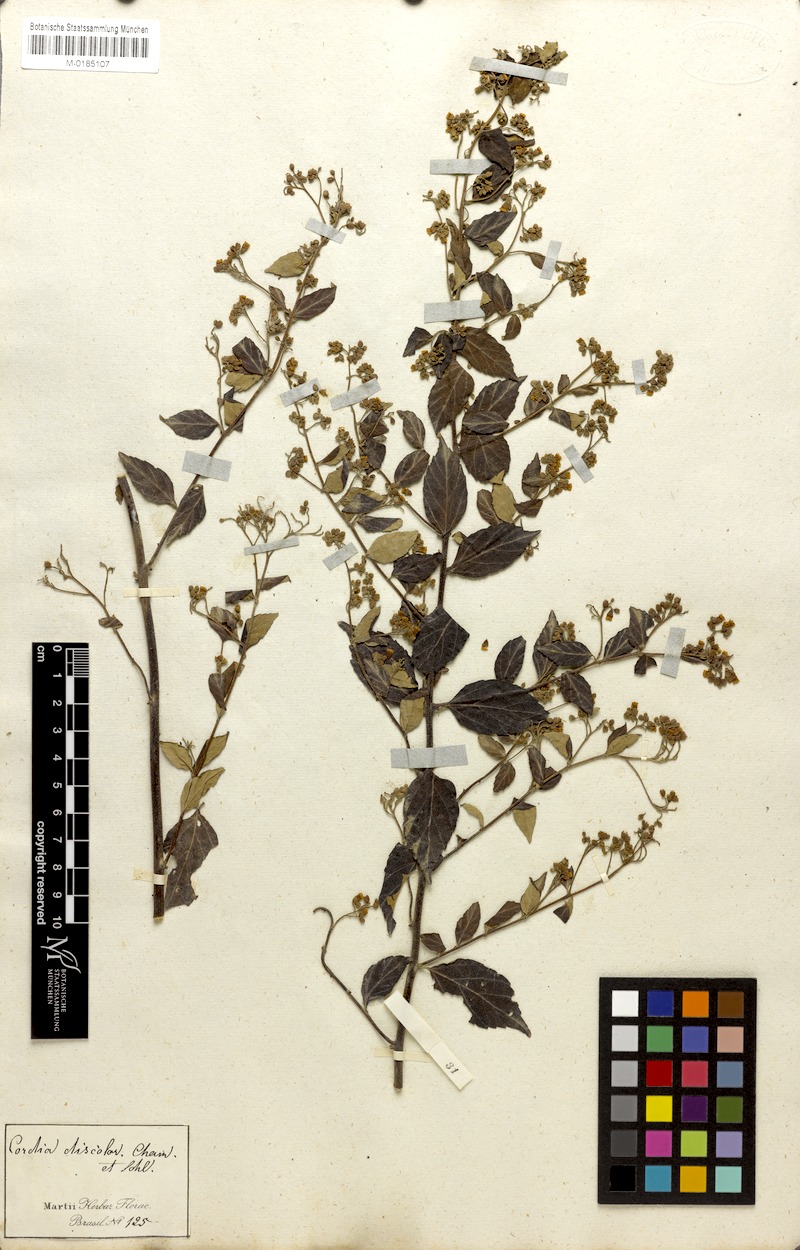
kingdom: Plantae
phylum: Tracheophyta
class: Magnoliopsida
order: Boraginales
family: Cordiaceae
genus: Varronia
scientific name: Varronia polycephala
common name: Black-sage
